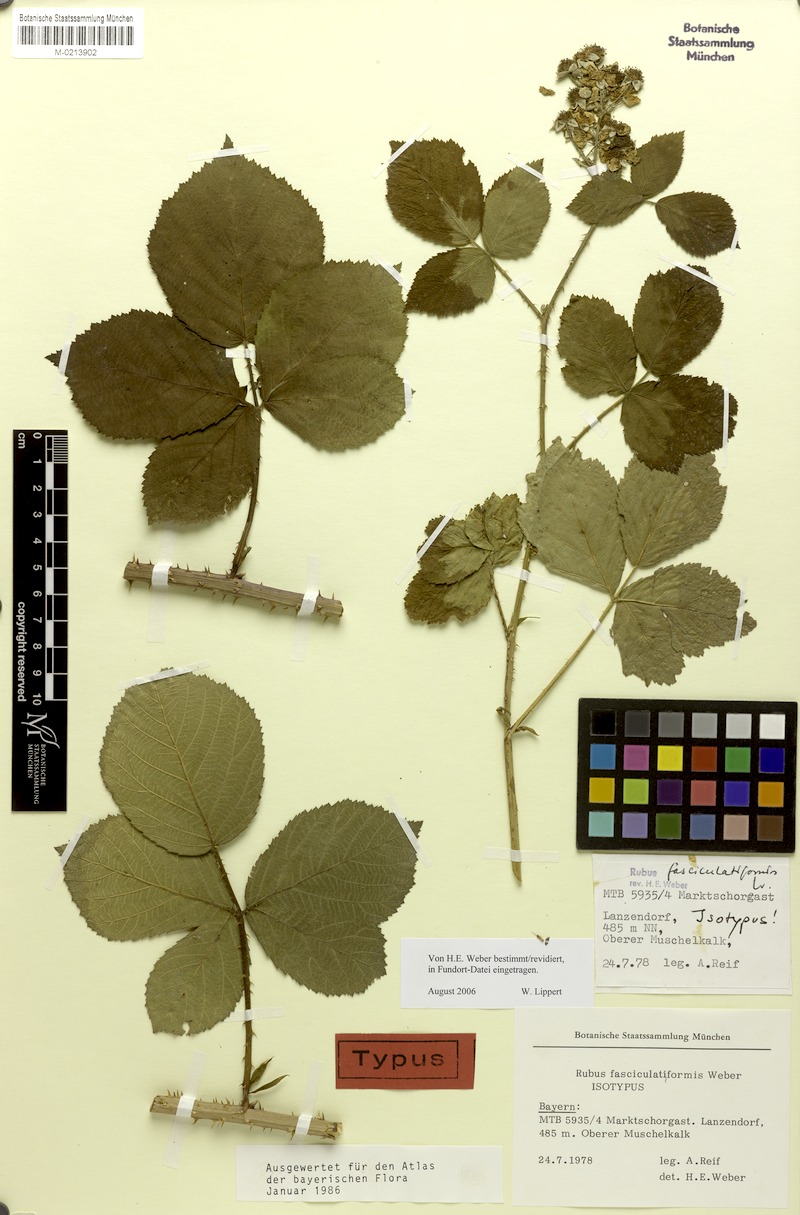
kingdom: Plantae
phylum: Tracheophyta
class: Magnoliopsida
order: Rosales
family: Rosaceae
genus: Rubus
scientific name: Rubus fasciculatiformis
